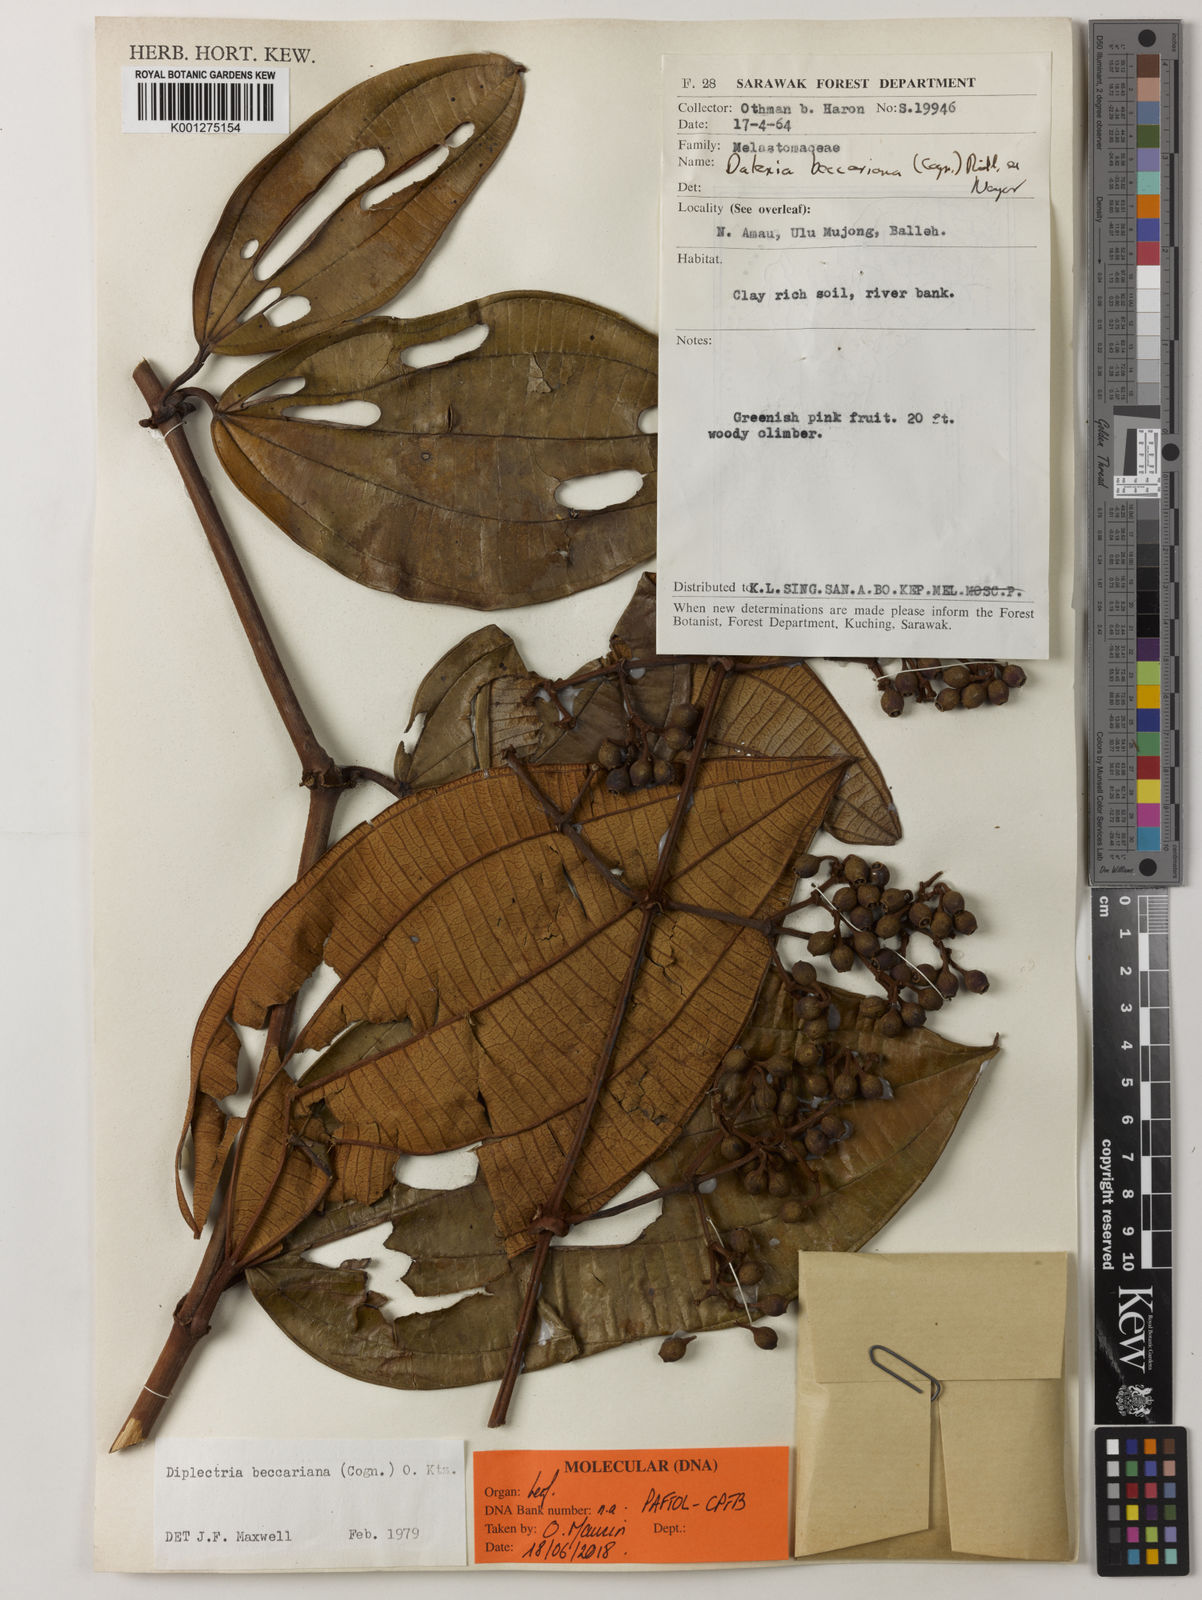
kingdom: Plantae
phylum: Tracheophyta
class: Magnoliopsida
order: Myrtales
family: Melastomataceae
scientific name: Melastomataceae
